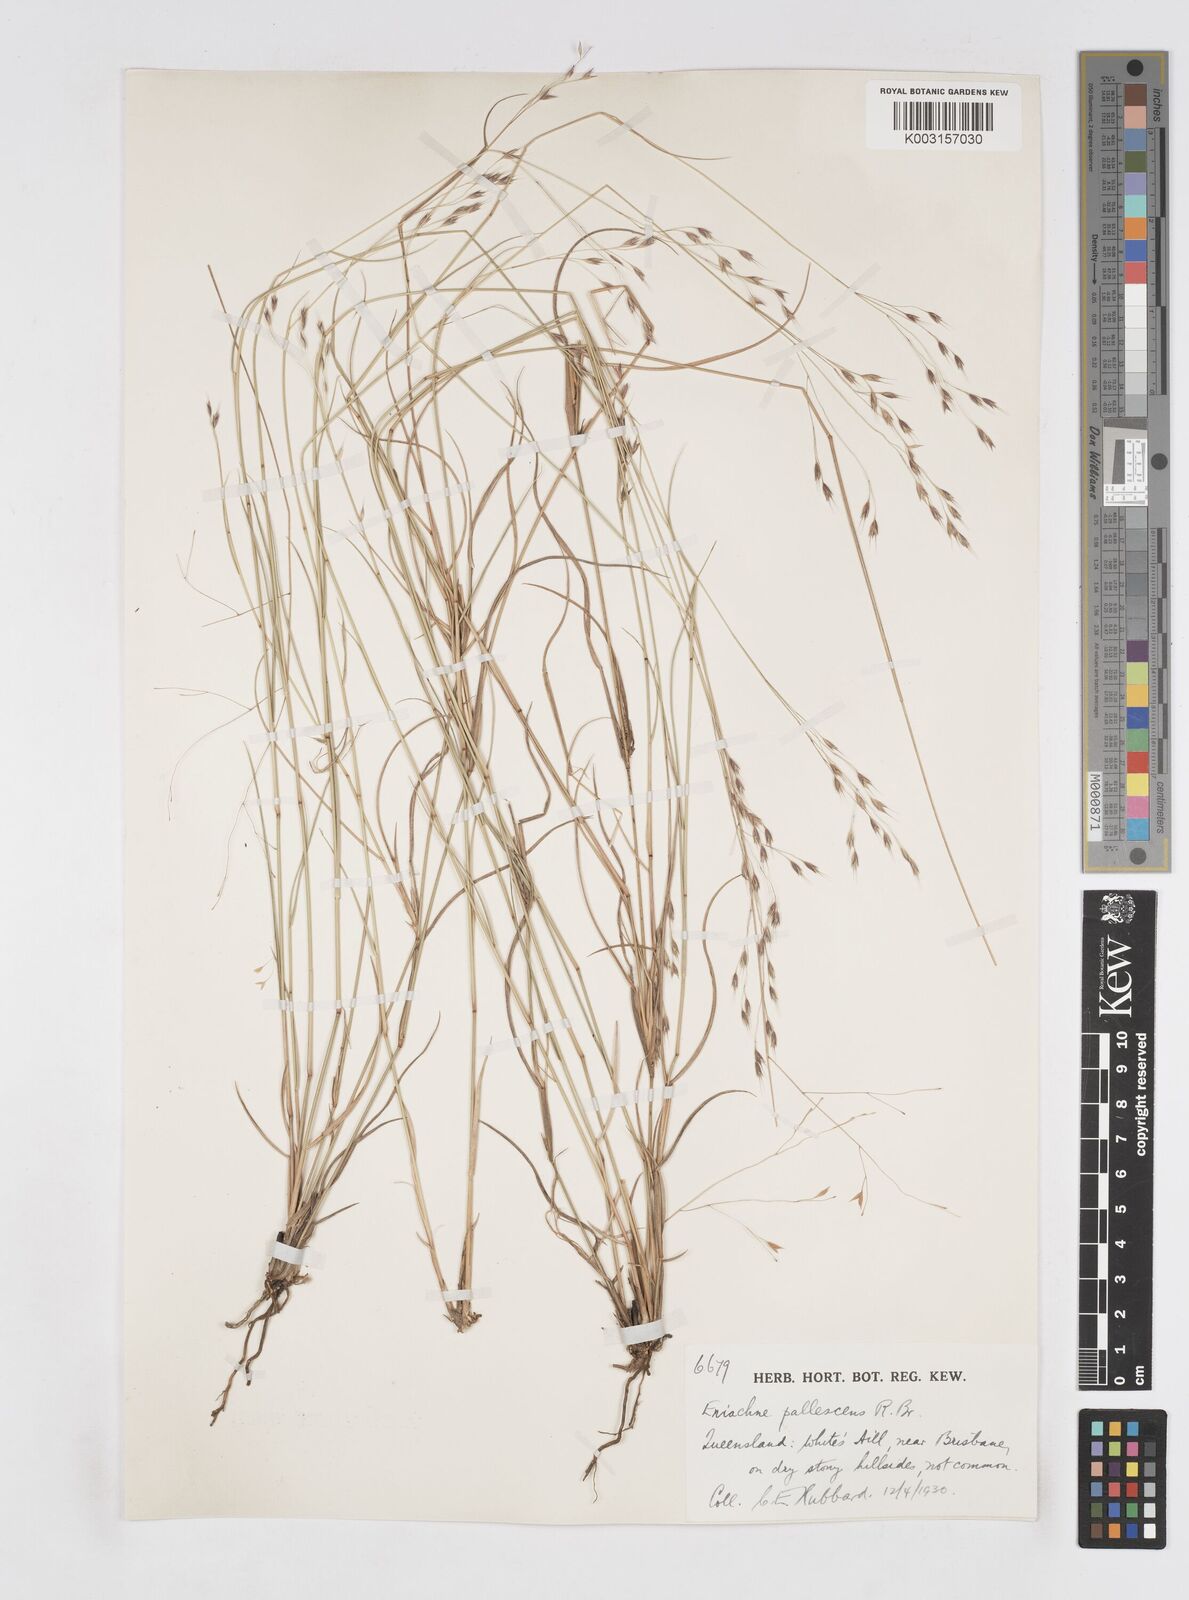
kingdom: Plantae
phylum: Tracheophyta
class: Liliopsida
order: Poales
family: Poaceae
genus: Eriachne
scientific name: Eriachne pallescens
